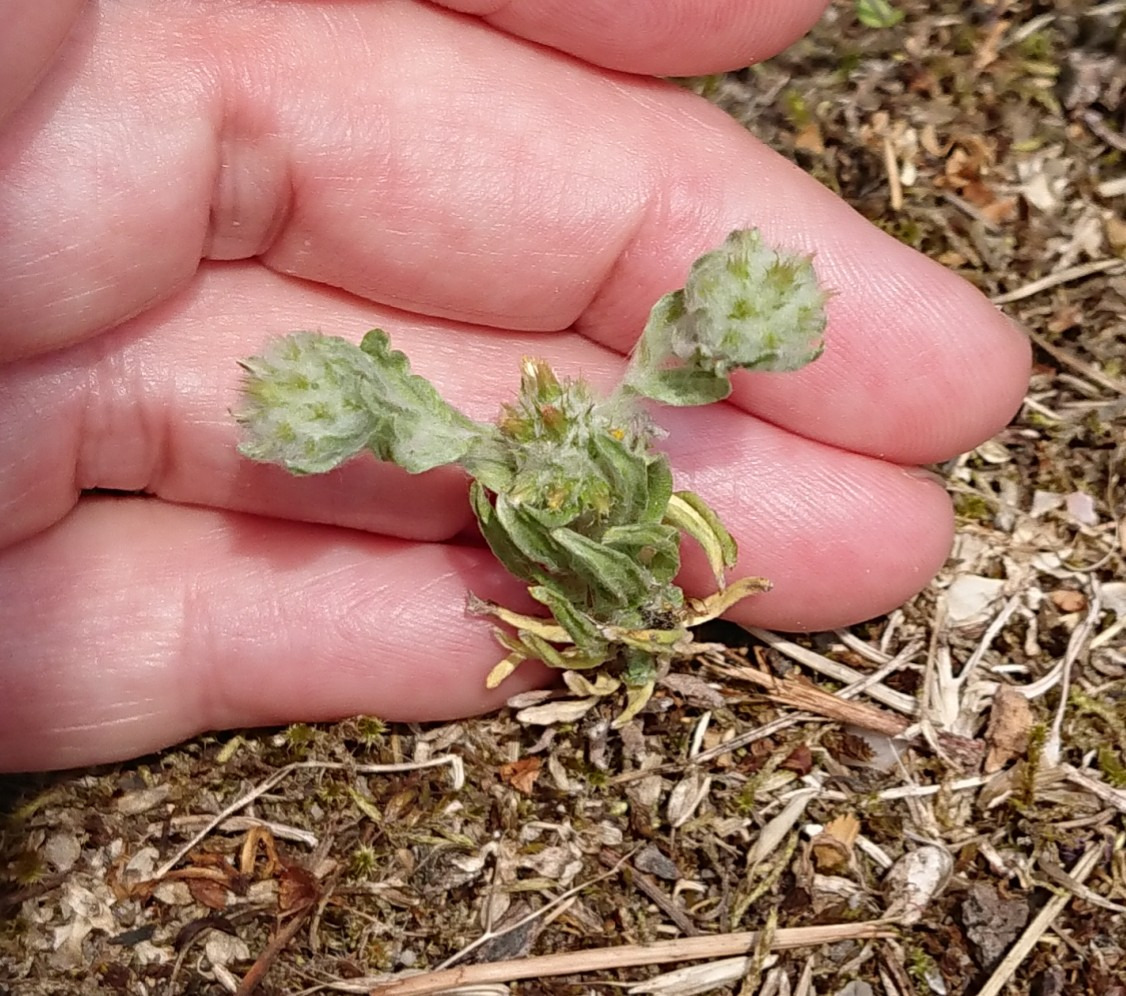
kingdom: Plantae
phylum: Tracheophyta
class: Magnoliopsida
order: Asterales
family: Asteraceae
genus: Filago
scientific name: Filago germanica
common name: Kugle-museurt
